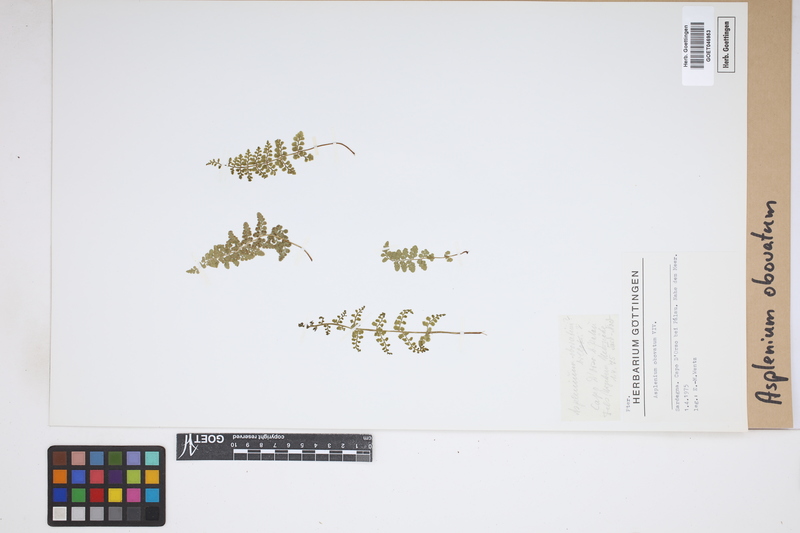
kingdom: Plantae
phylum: Tracheophyta
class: Polypodiopsida
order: Polypodiales
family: Aspleniaceae
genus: Asplenium
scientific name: Asplenium obovatum
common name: Lanceolate spleenwort
